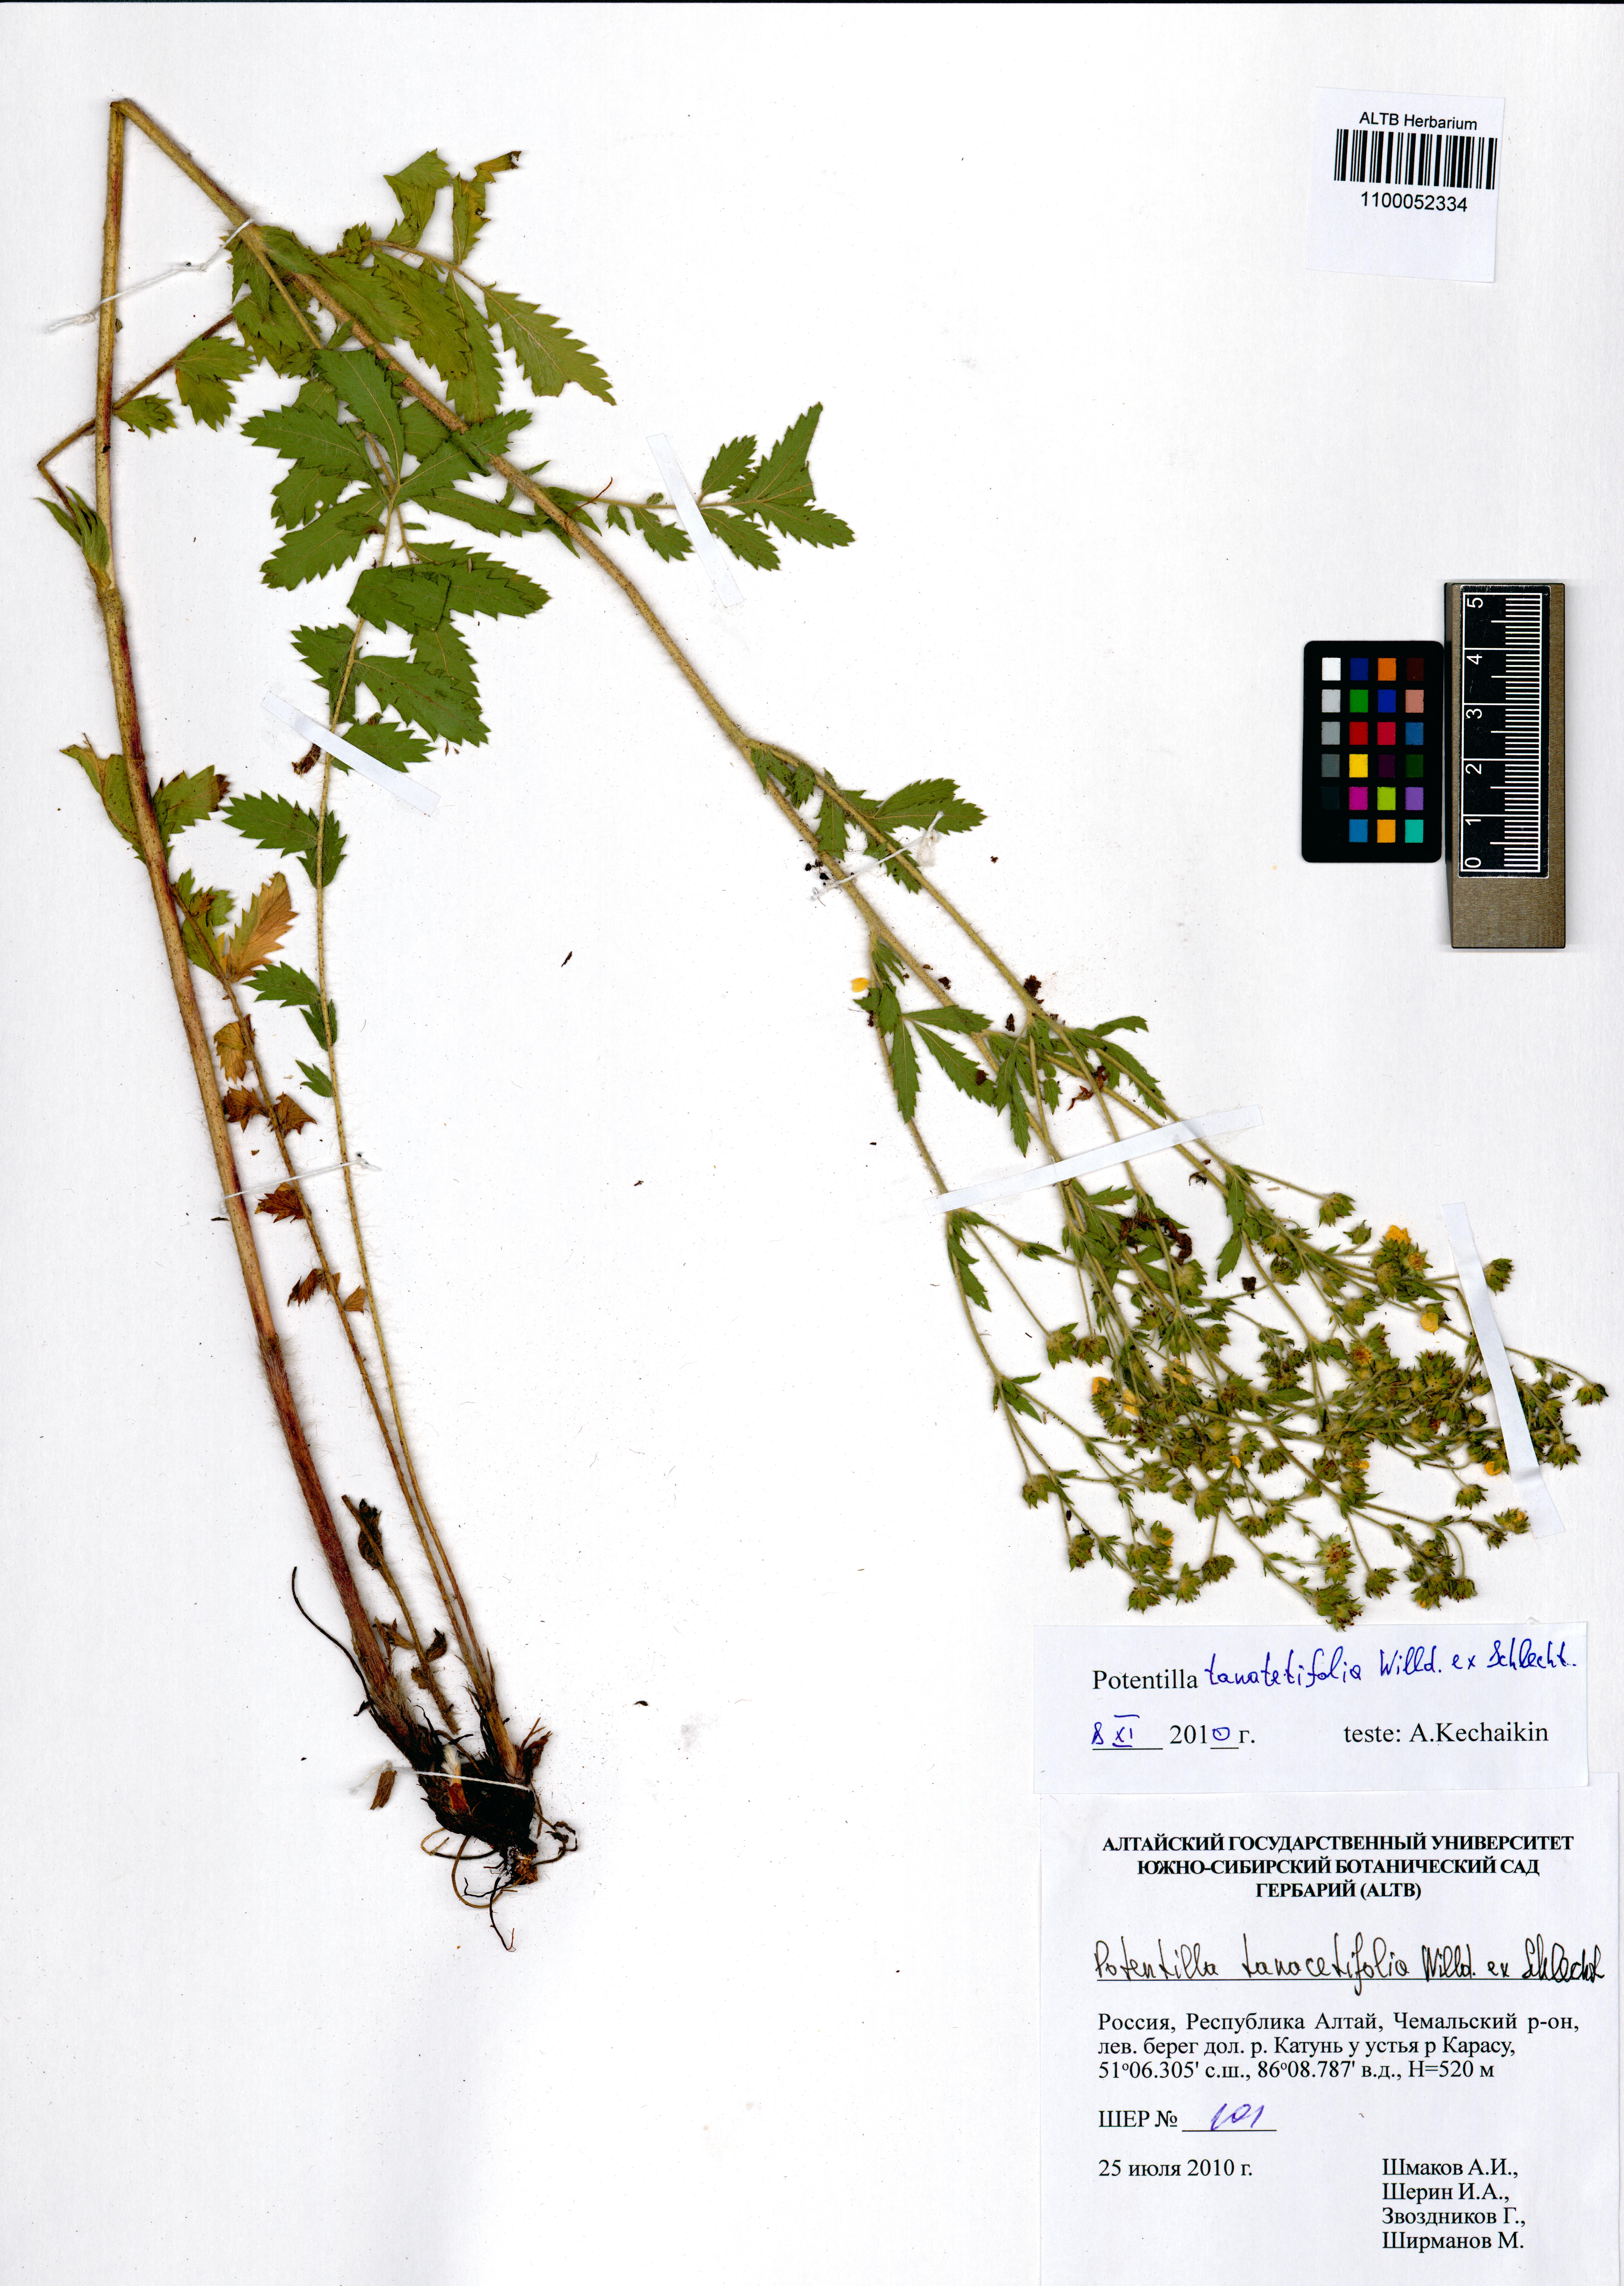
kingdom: Plantae
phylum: Tracheophyta
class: Magnoliopsida
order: Rosales
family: Rosaceae
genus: Potentilla
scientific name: Potentilla tanacetifolia
